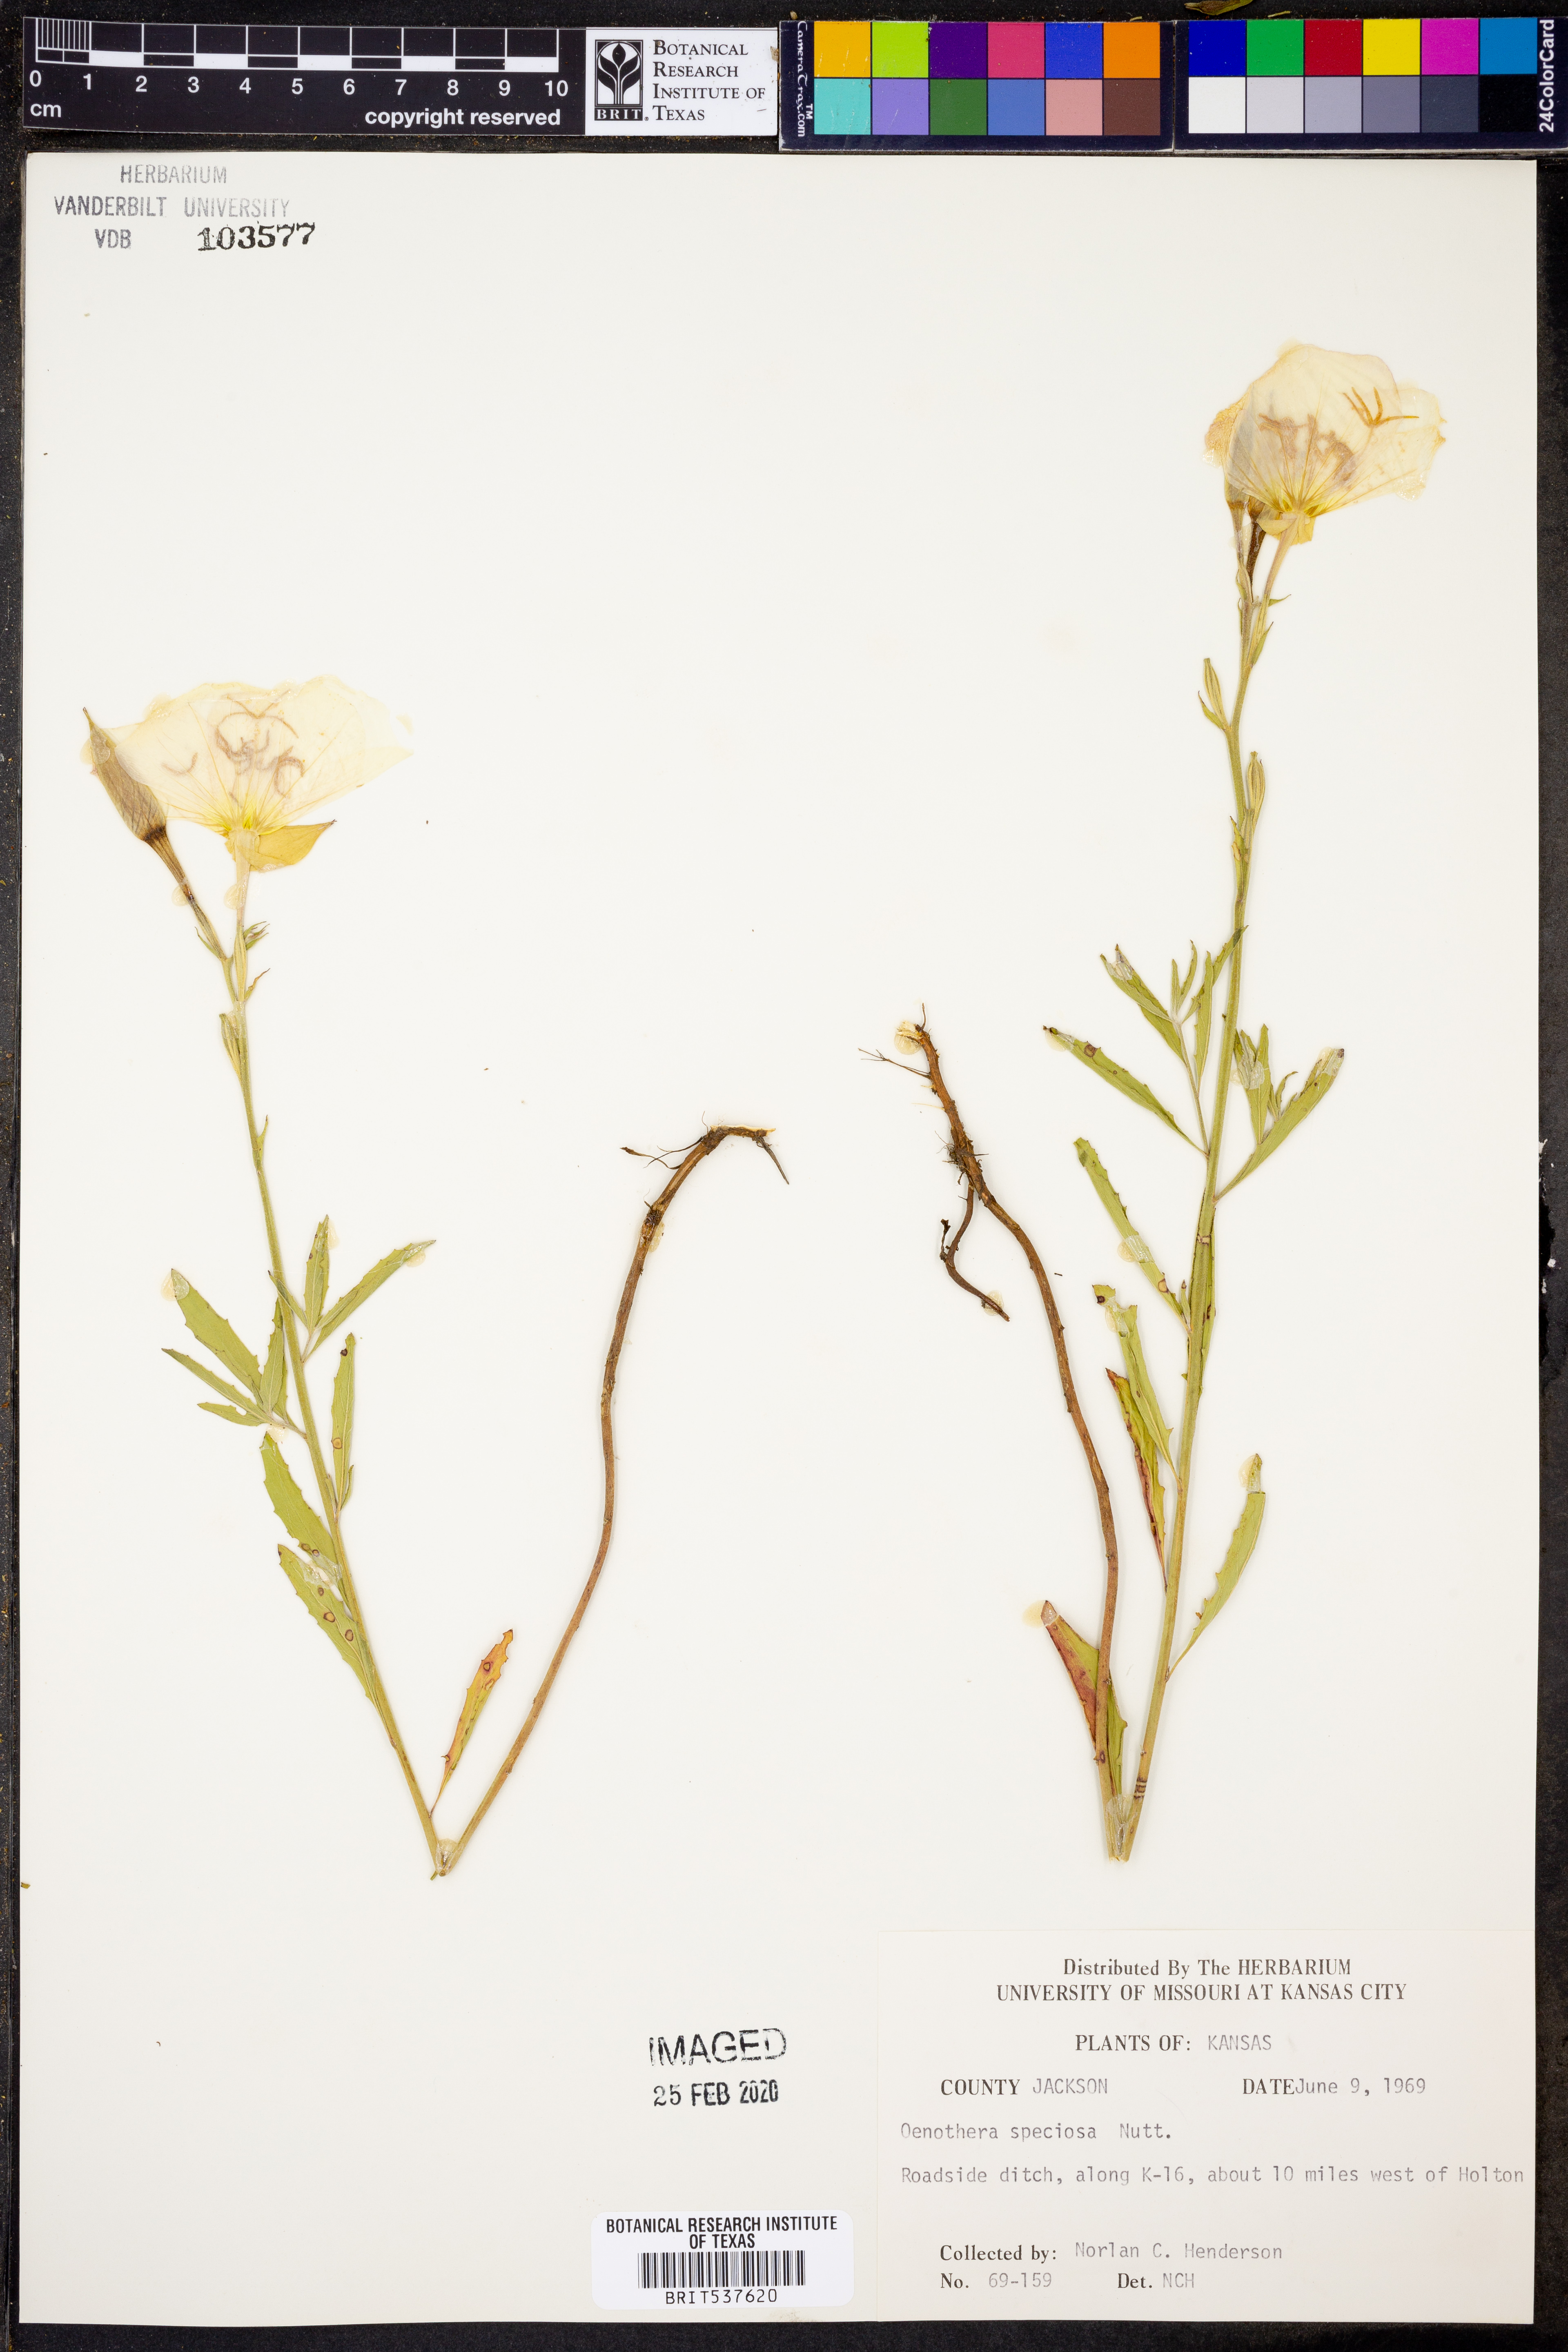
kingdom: Plantae
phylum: Tracheophyta
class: Magnoliopsida
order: Myrtales
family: Onagraceae
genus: Oenothera
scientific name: Oenothera speciosa
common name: White evening-primrose
